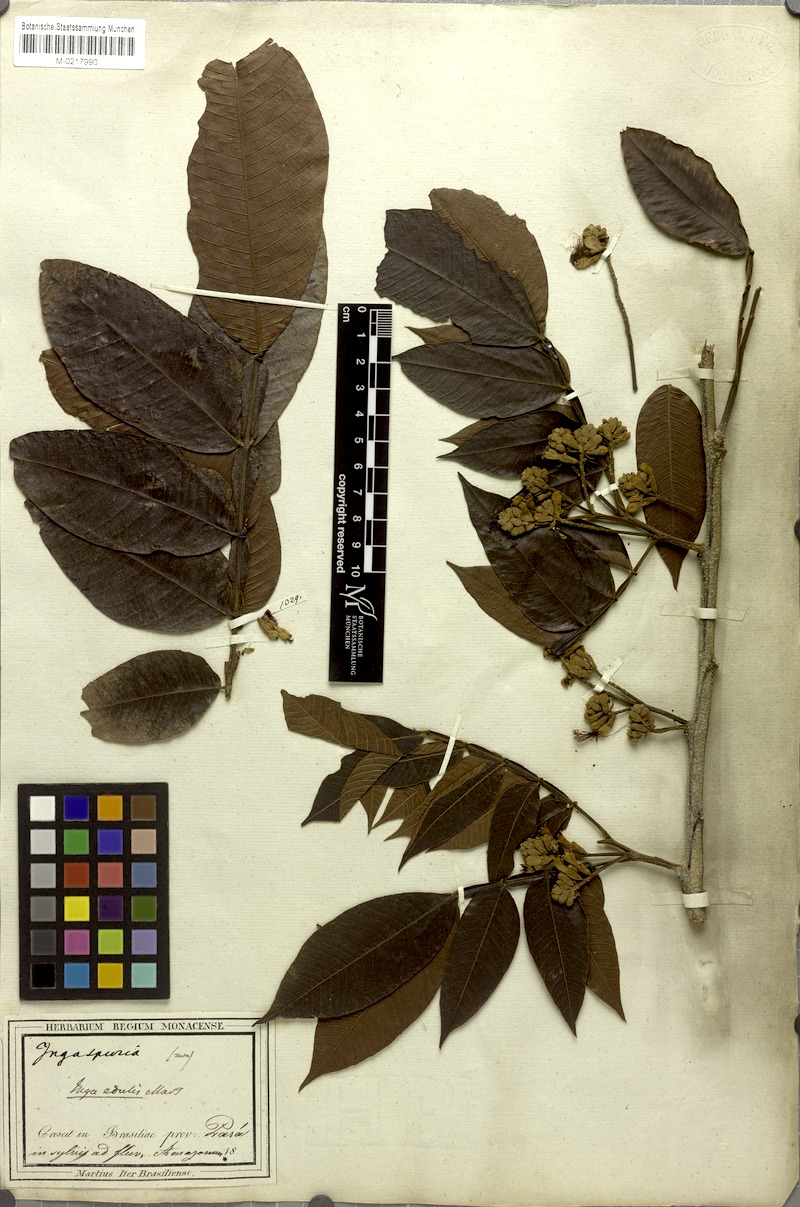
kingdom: Plantae
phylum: Tracheophyta
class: Magnoliopsida
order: Fabales
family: Fabaceae
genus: Inga
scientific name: Inga edulis
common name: Ice cream bean
